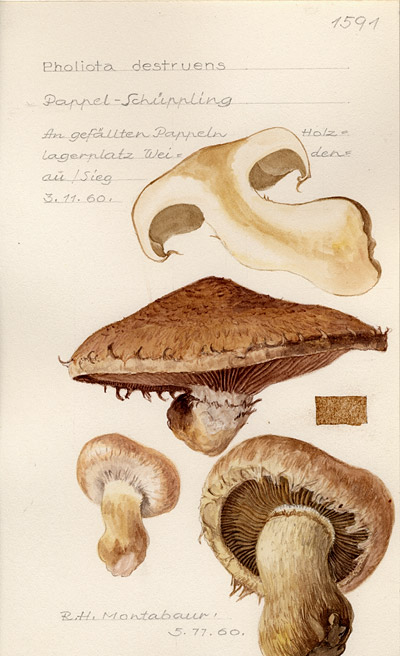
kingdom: Fungi
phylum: Basidiomycota
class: Agaricomycetes
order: Agaricales
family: Strophariaceae
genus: Pholiota
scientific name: Pholiota populnea
